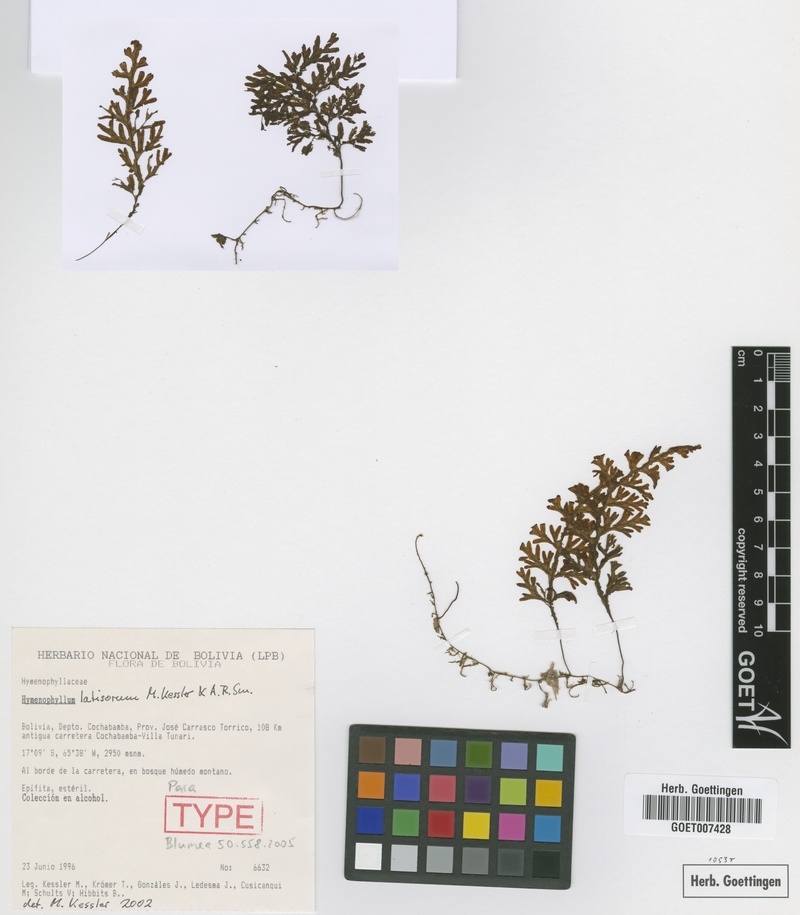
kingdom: Plantae
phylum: Tracheophyta
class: Polypodiopsida
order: Hymenophyllales
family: Hymenophyllaceae
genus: Hymenophyllum
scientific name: Hymenophyllum latisorum
